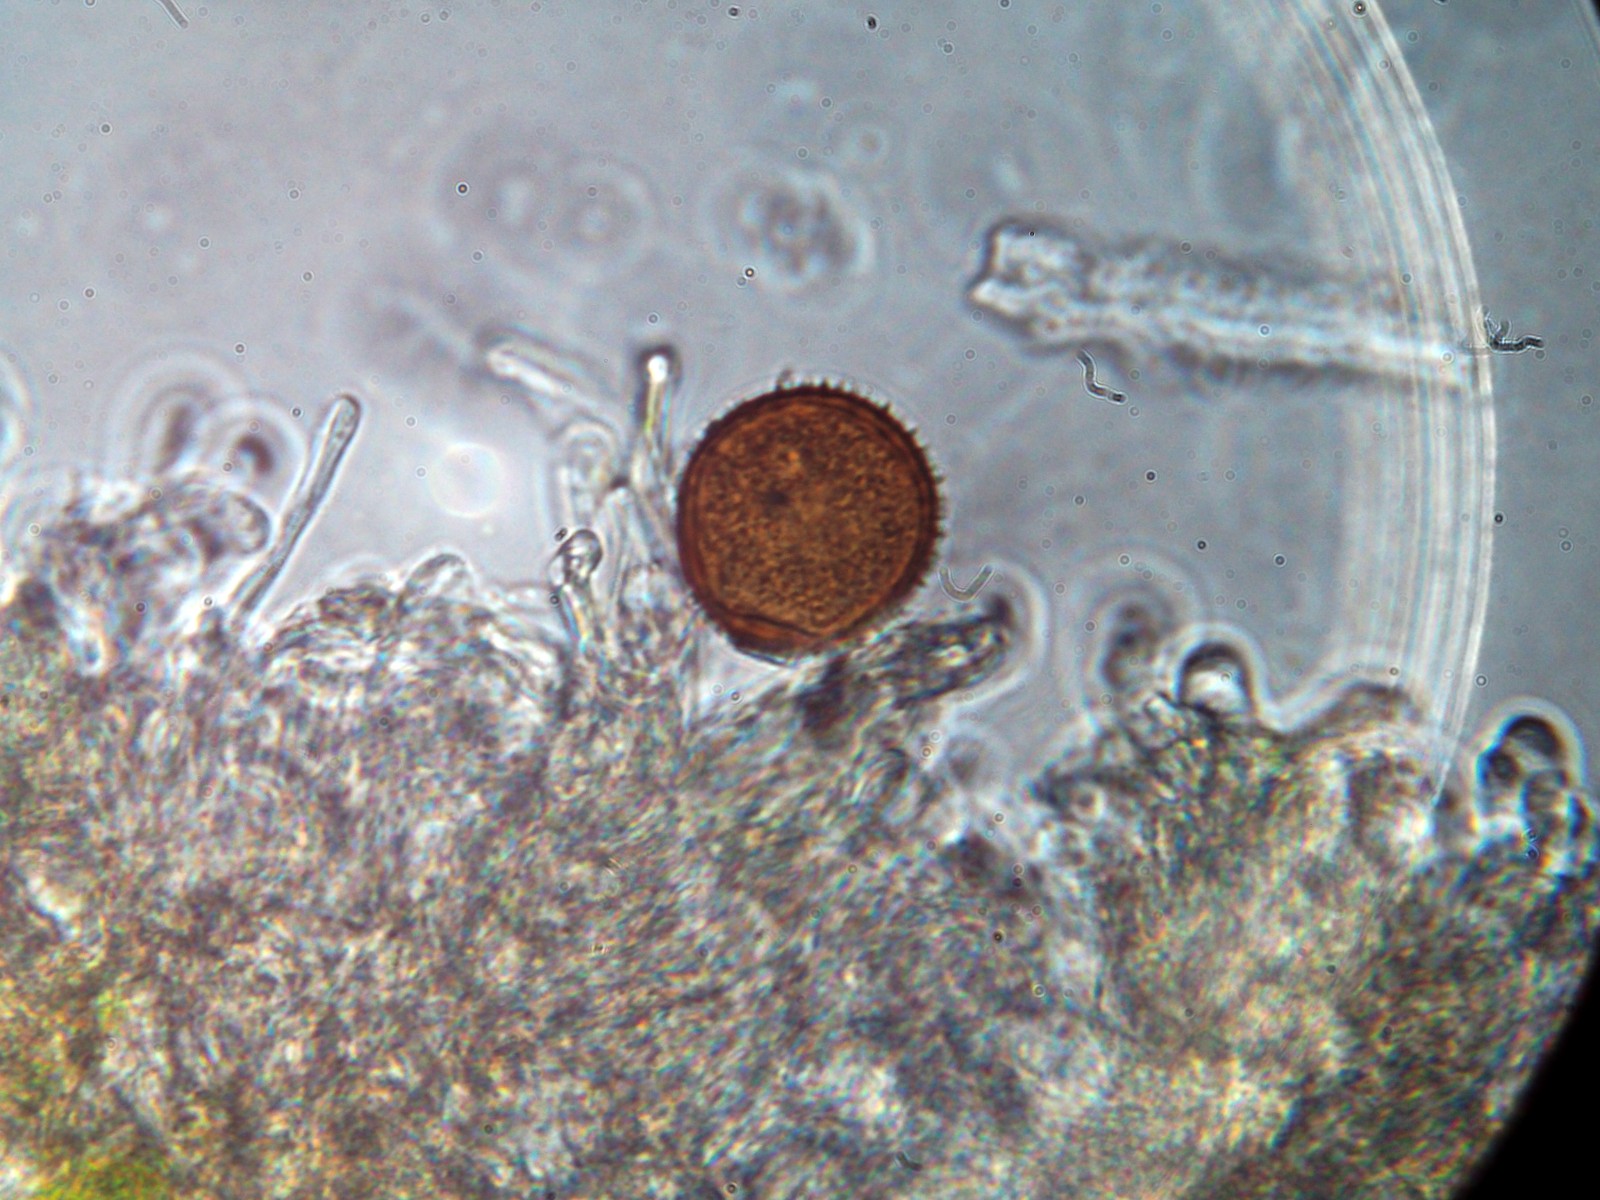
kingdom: Fungi
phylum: Basidiomycota
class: Pucciniomycetes
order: Pucciniales
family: Pucciniaceae
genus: Puccinia
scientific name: Puccinia hieracii
